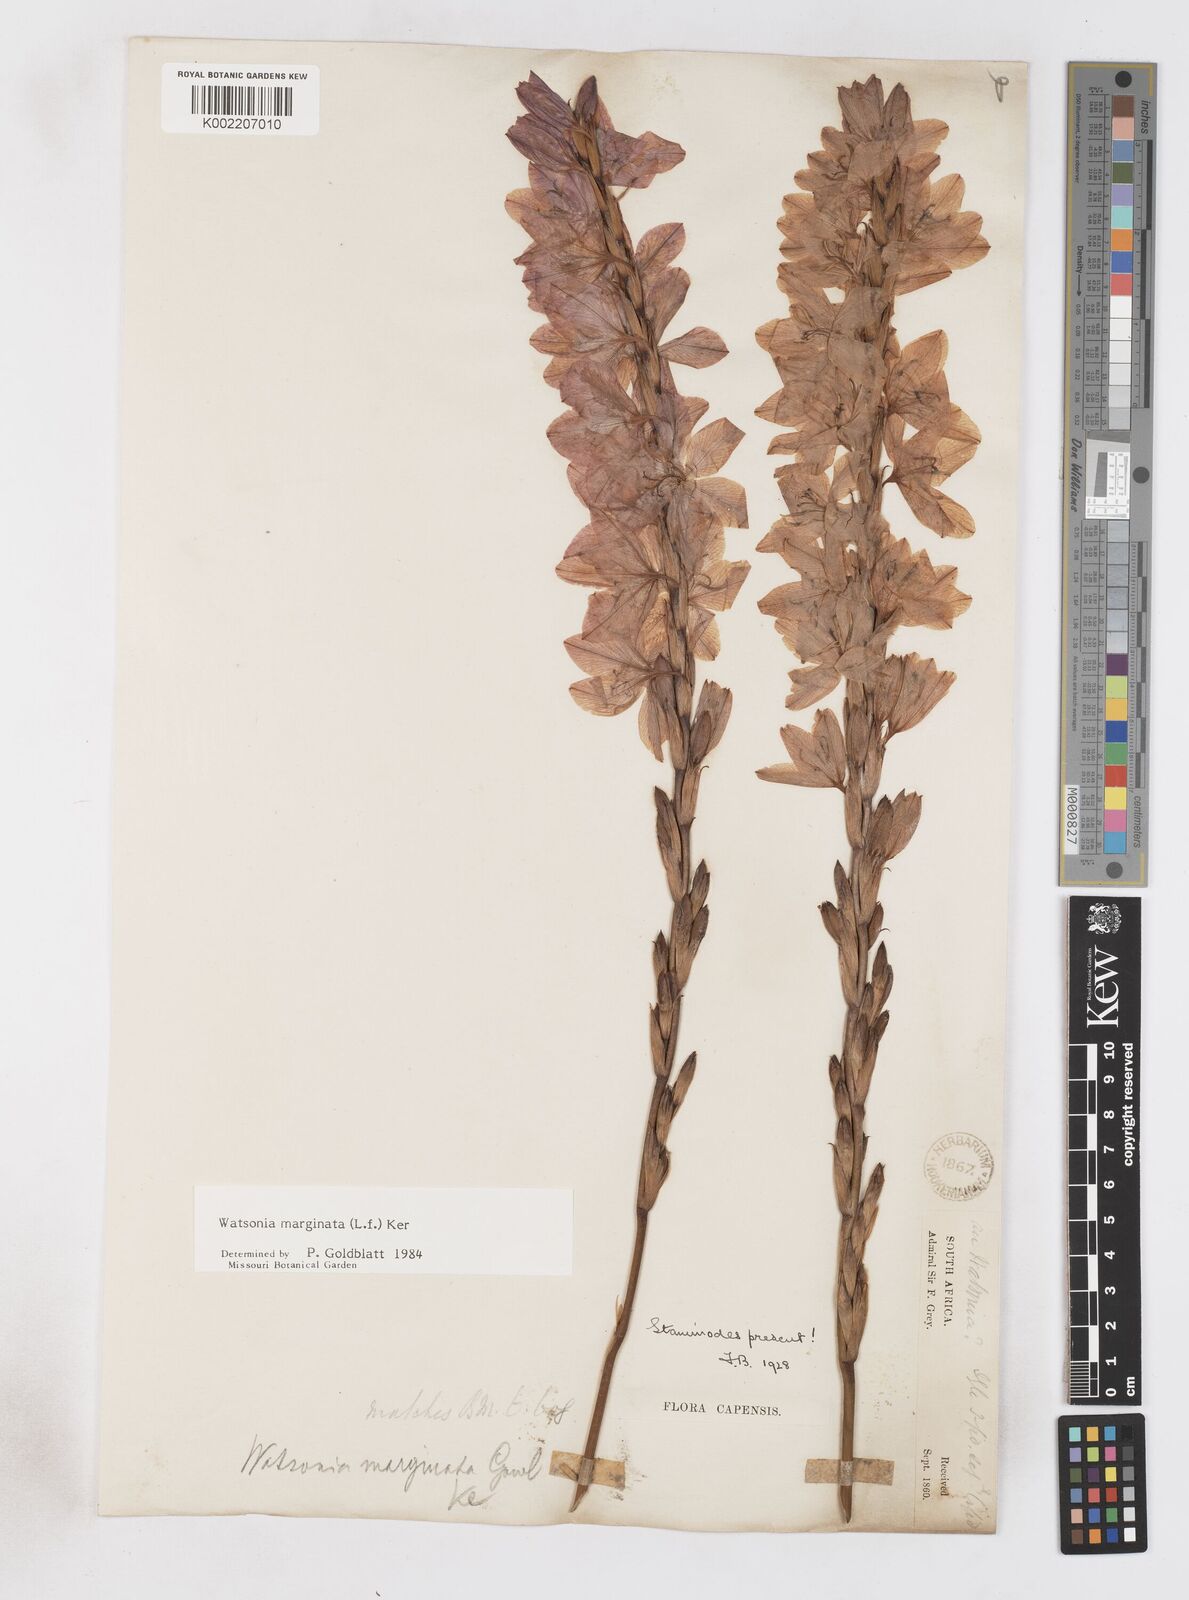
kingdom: Plantae
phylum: Tracheophyta
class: Liliopsida
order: Asparagales
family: Iridaceae
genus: Watsonia
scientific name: Watsonia marginata
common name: Fragrant bugle-lily
